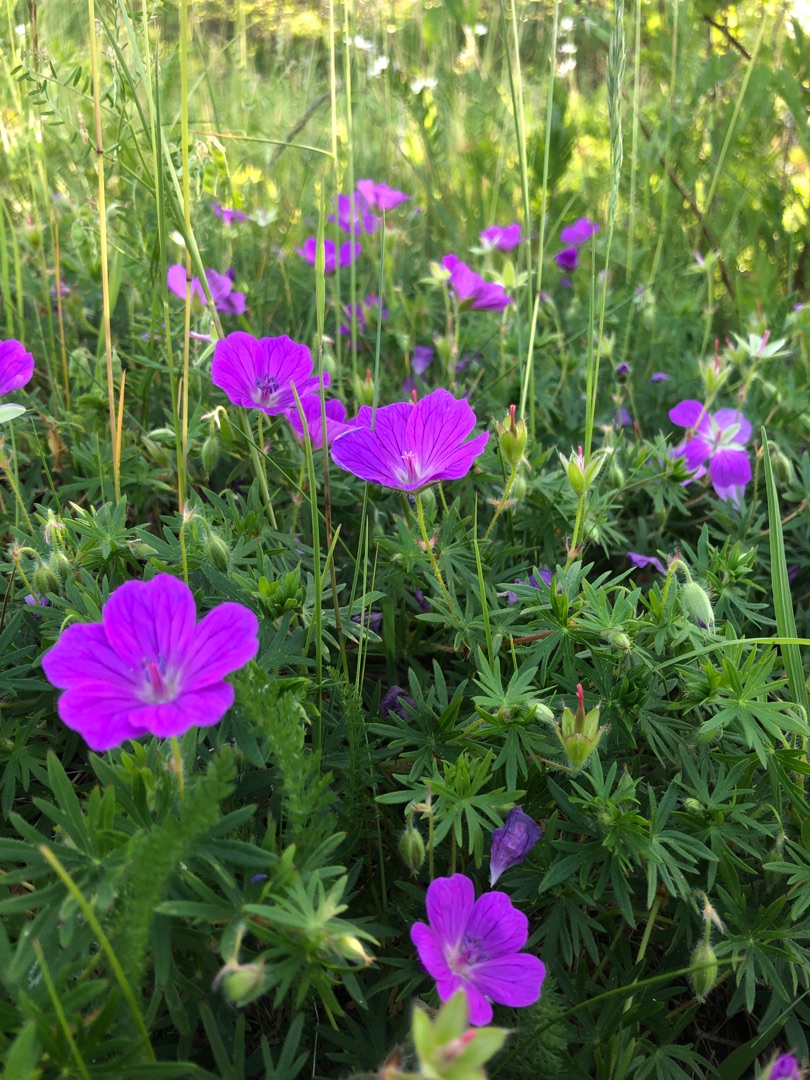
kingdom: Plantae
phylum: Tracheophyta
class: Magnoliopsida
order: Geraniales
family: Geraniaceae
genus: Geranium
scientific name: Geranium sanguineum
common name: Blodrød storkenæb
